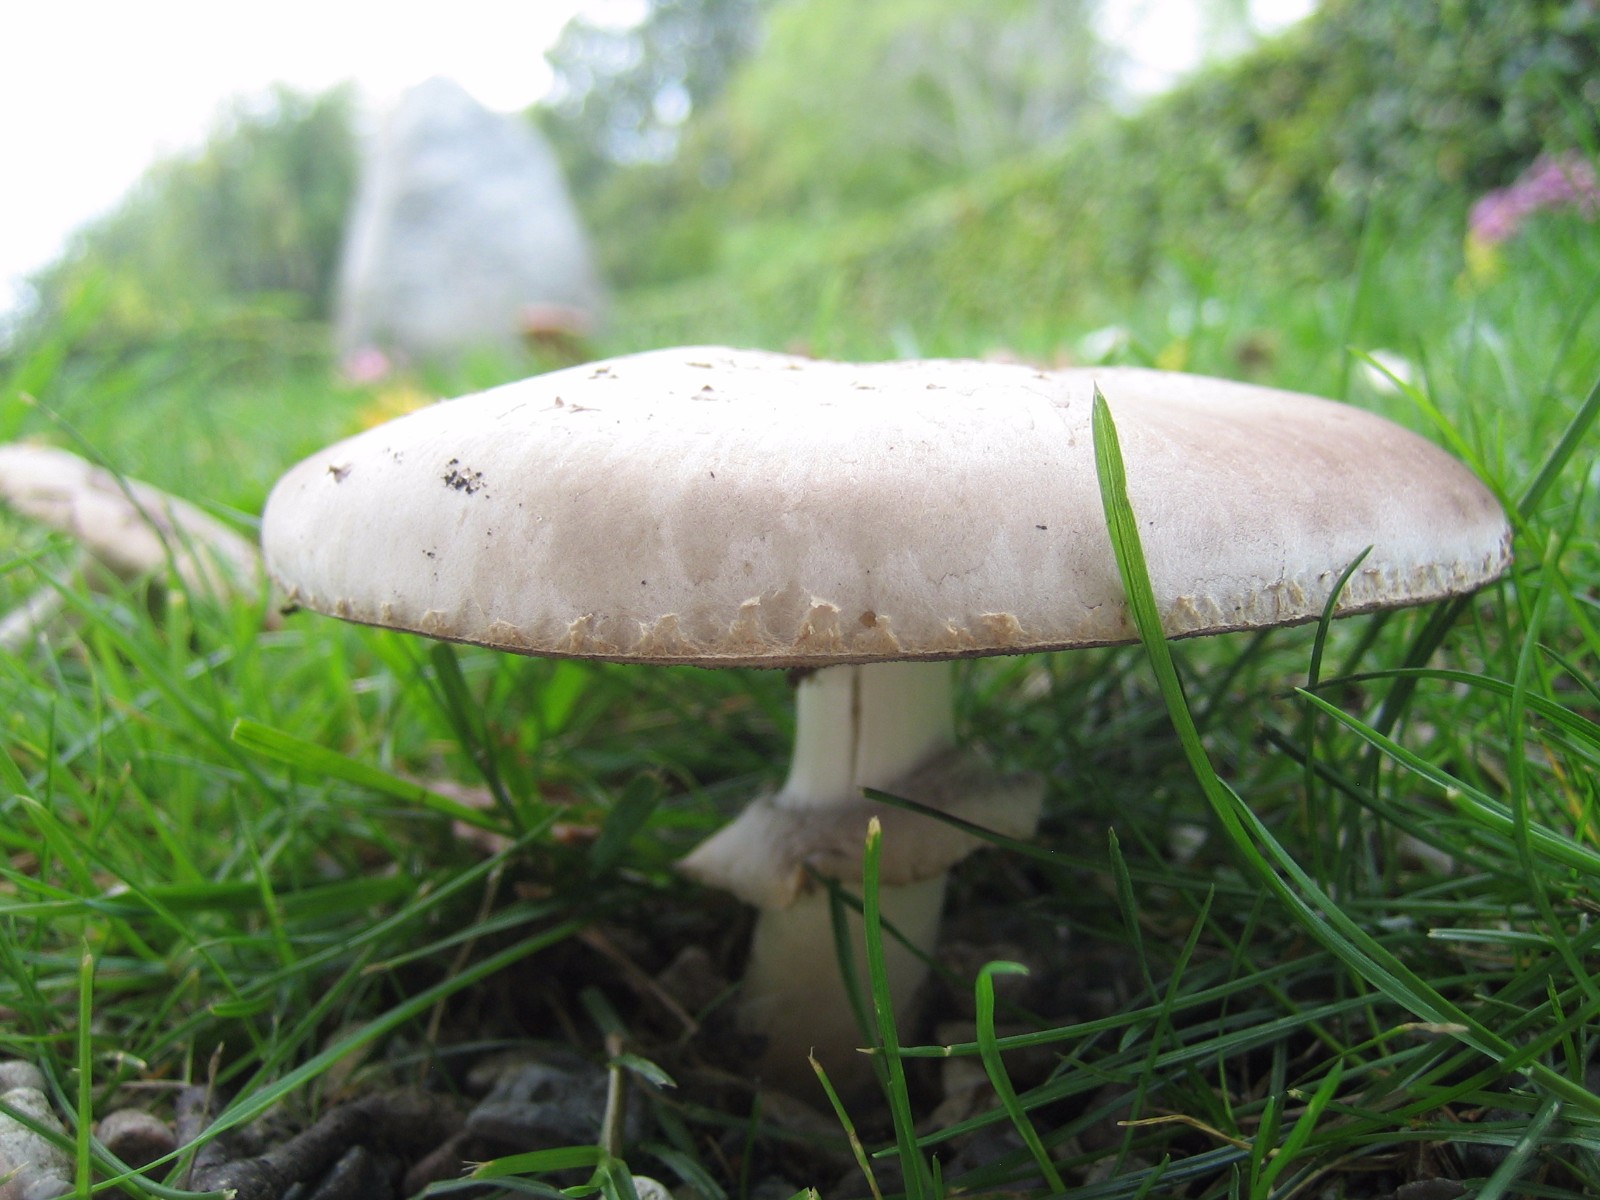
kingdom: Fungi
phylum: Basidiomycota
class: Agaricomycetes
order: Agaricales
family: Agaricaceae
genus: Agaricus
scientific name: Agaricus xanthodermus
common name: karbol-champignon
